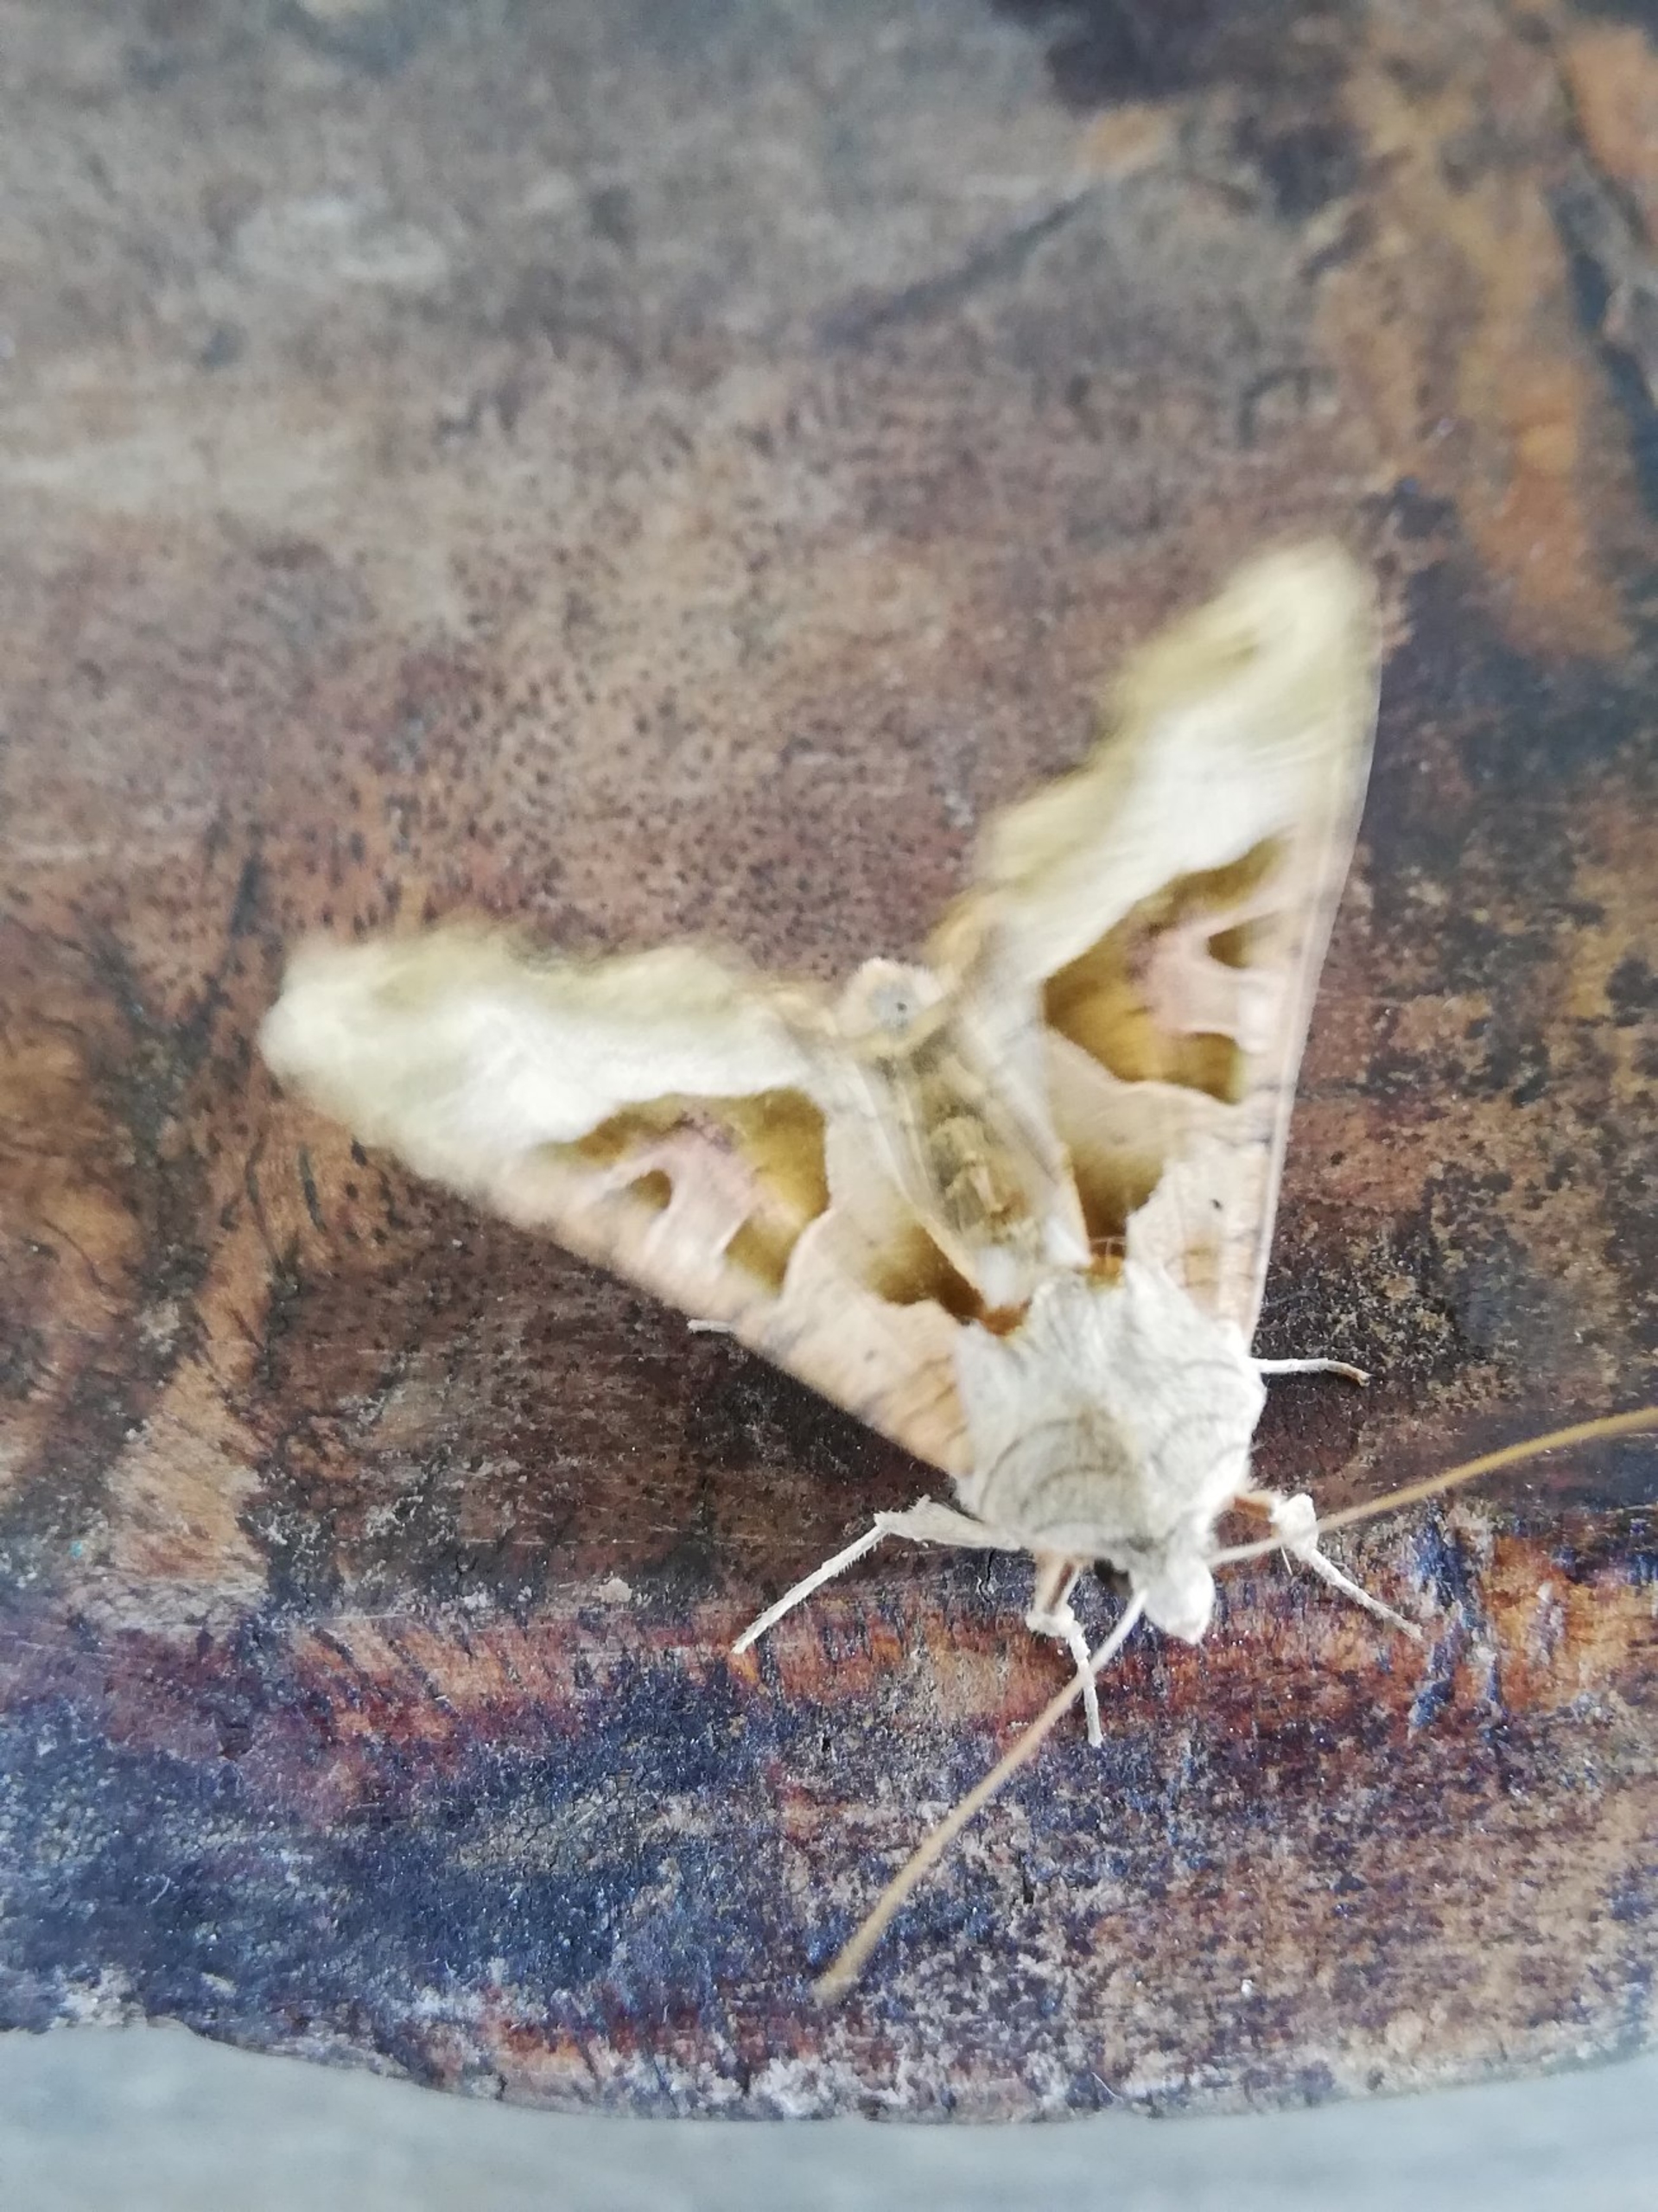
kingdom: Animalia
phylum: Arthropoda
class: Insecta
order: Lepidoptera
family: Noctuidae
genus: Phlogophora
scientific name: Phlogophora meticulosa
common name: Agatugle
